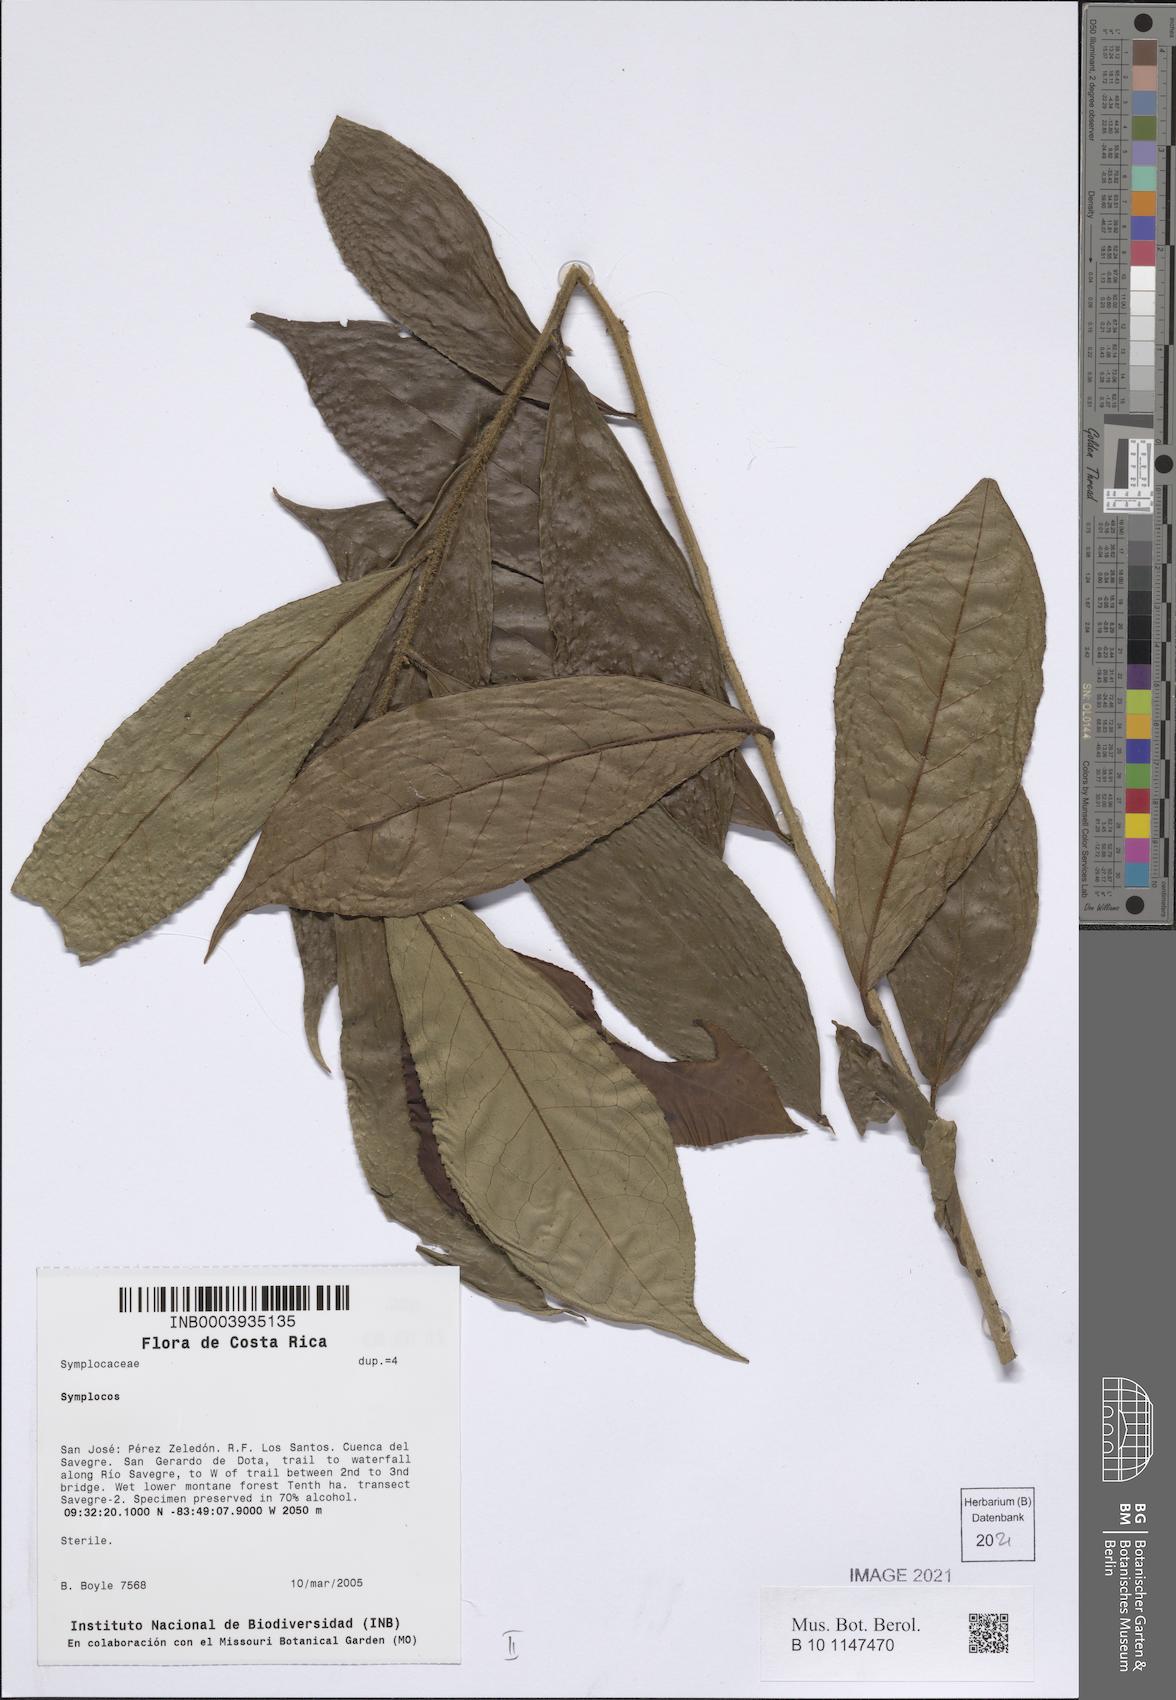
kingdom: Plantae
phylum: Tracheophyta
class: Magnoliopsida
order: Ericales
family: Symplocaceae
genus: Symplocos
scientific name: Symplocos
